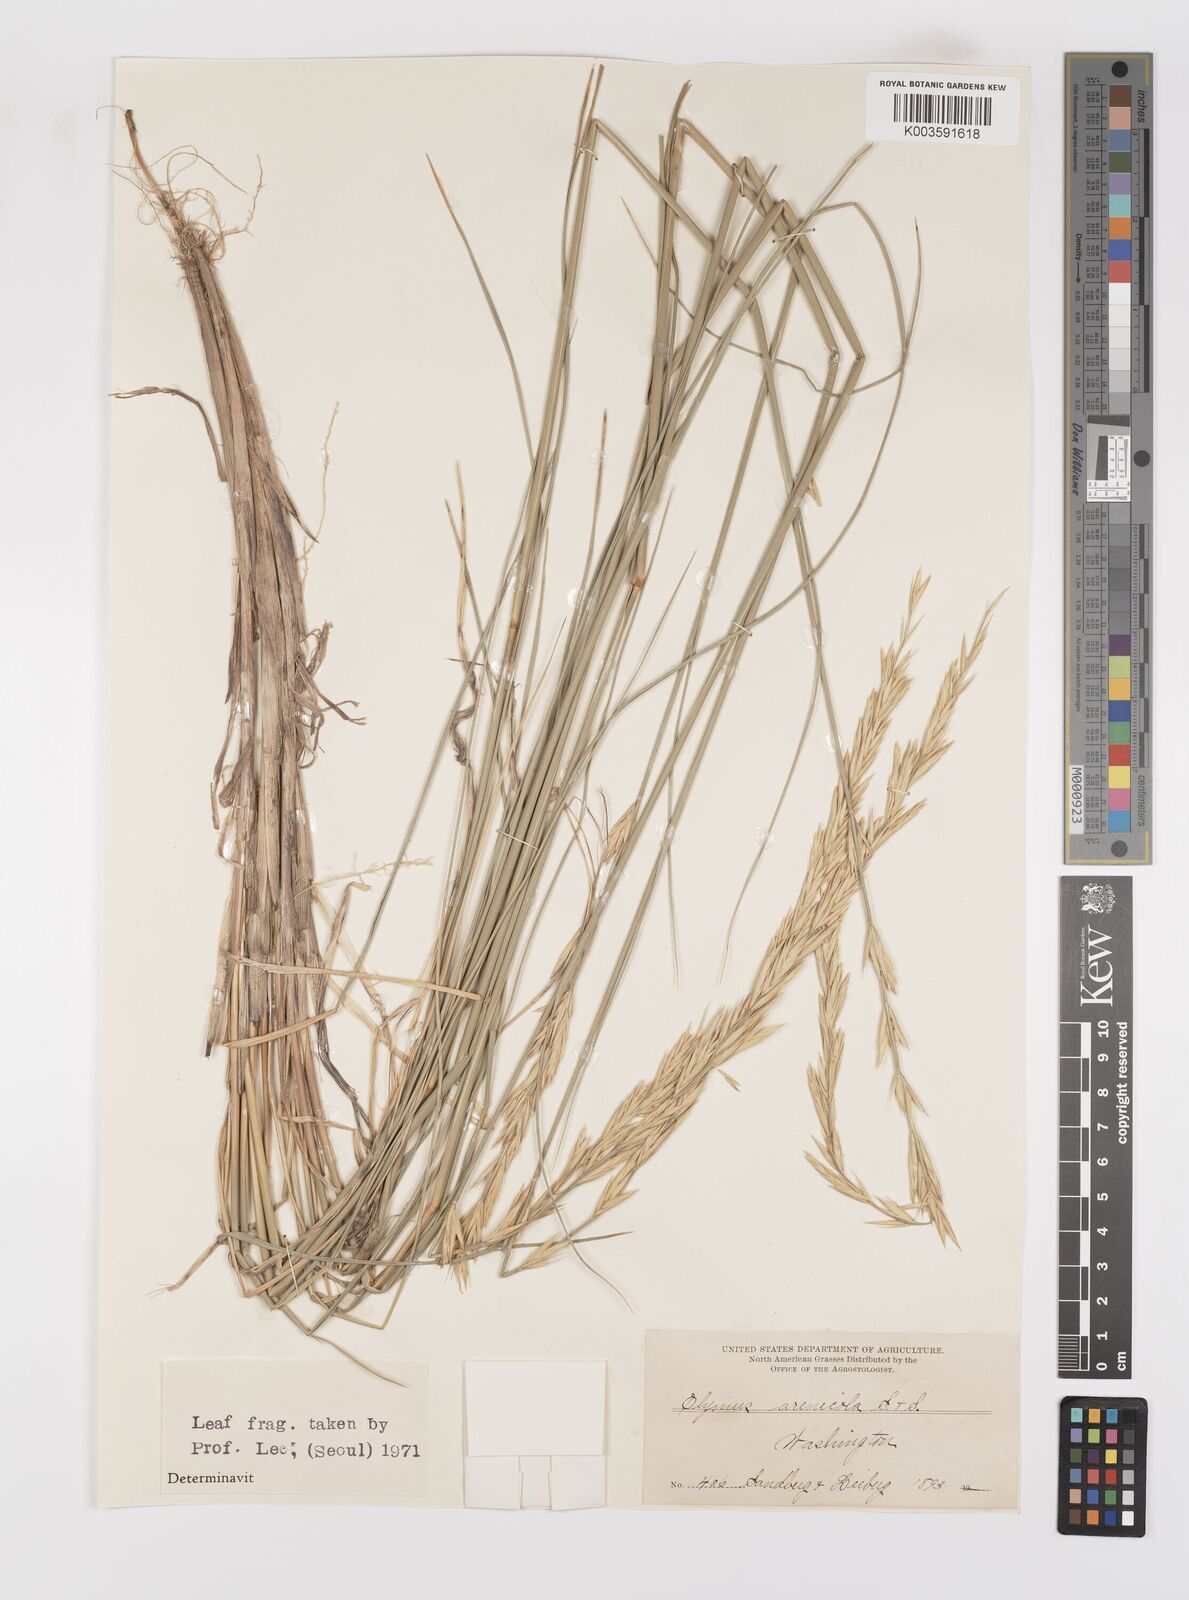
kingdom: Plantae
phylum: Tracheophyta
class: Liliopsida
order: Poales
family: Poaceae
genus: Leymus
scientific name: Leymus flavescens
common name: Yellow wild rye
